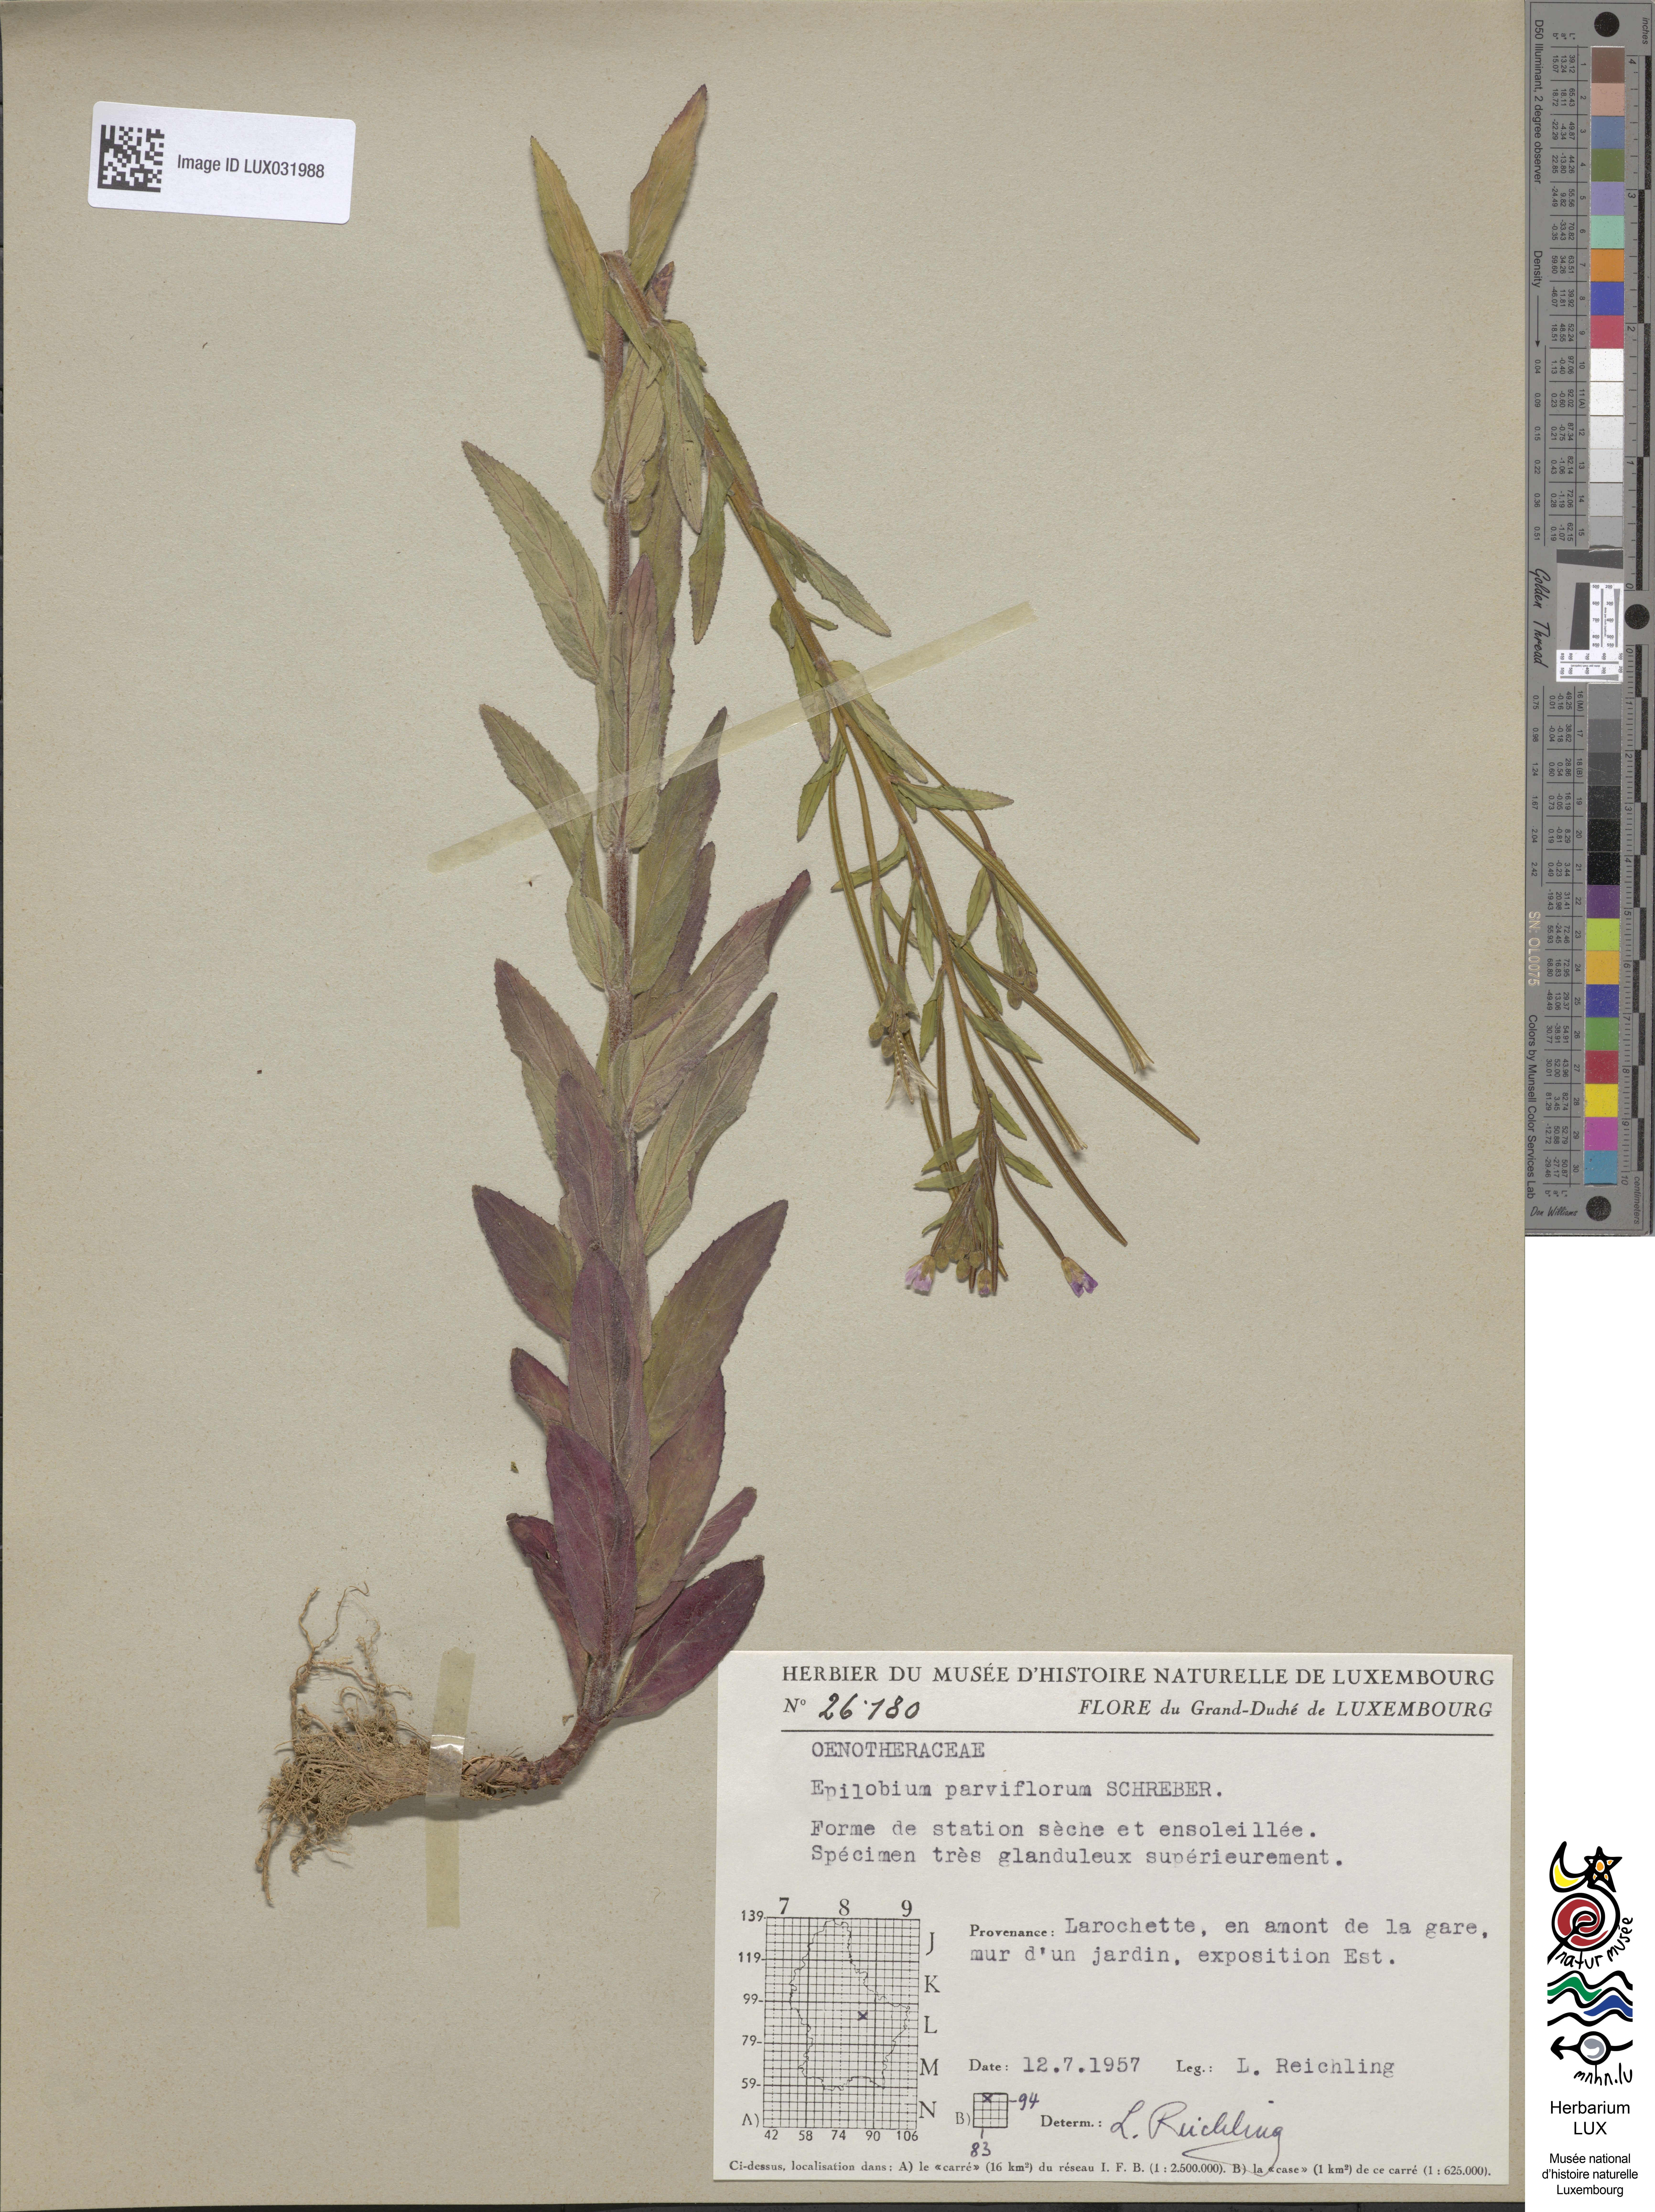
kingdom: Plantae
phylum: Tracheophyta
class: Magnoliopsida
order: Myrtales
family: Onagraceae
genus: Epilobium
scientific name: Epilobium parviflorum
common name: Hoary willowherb
